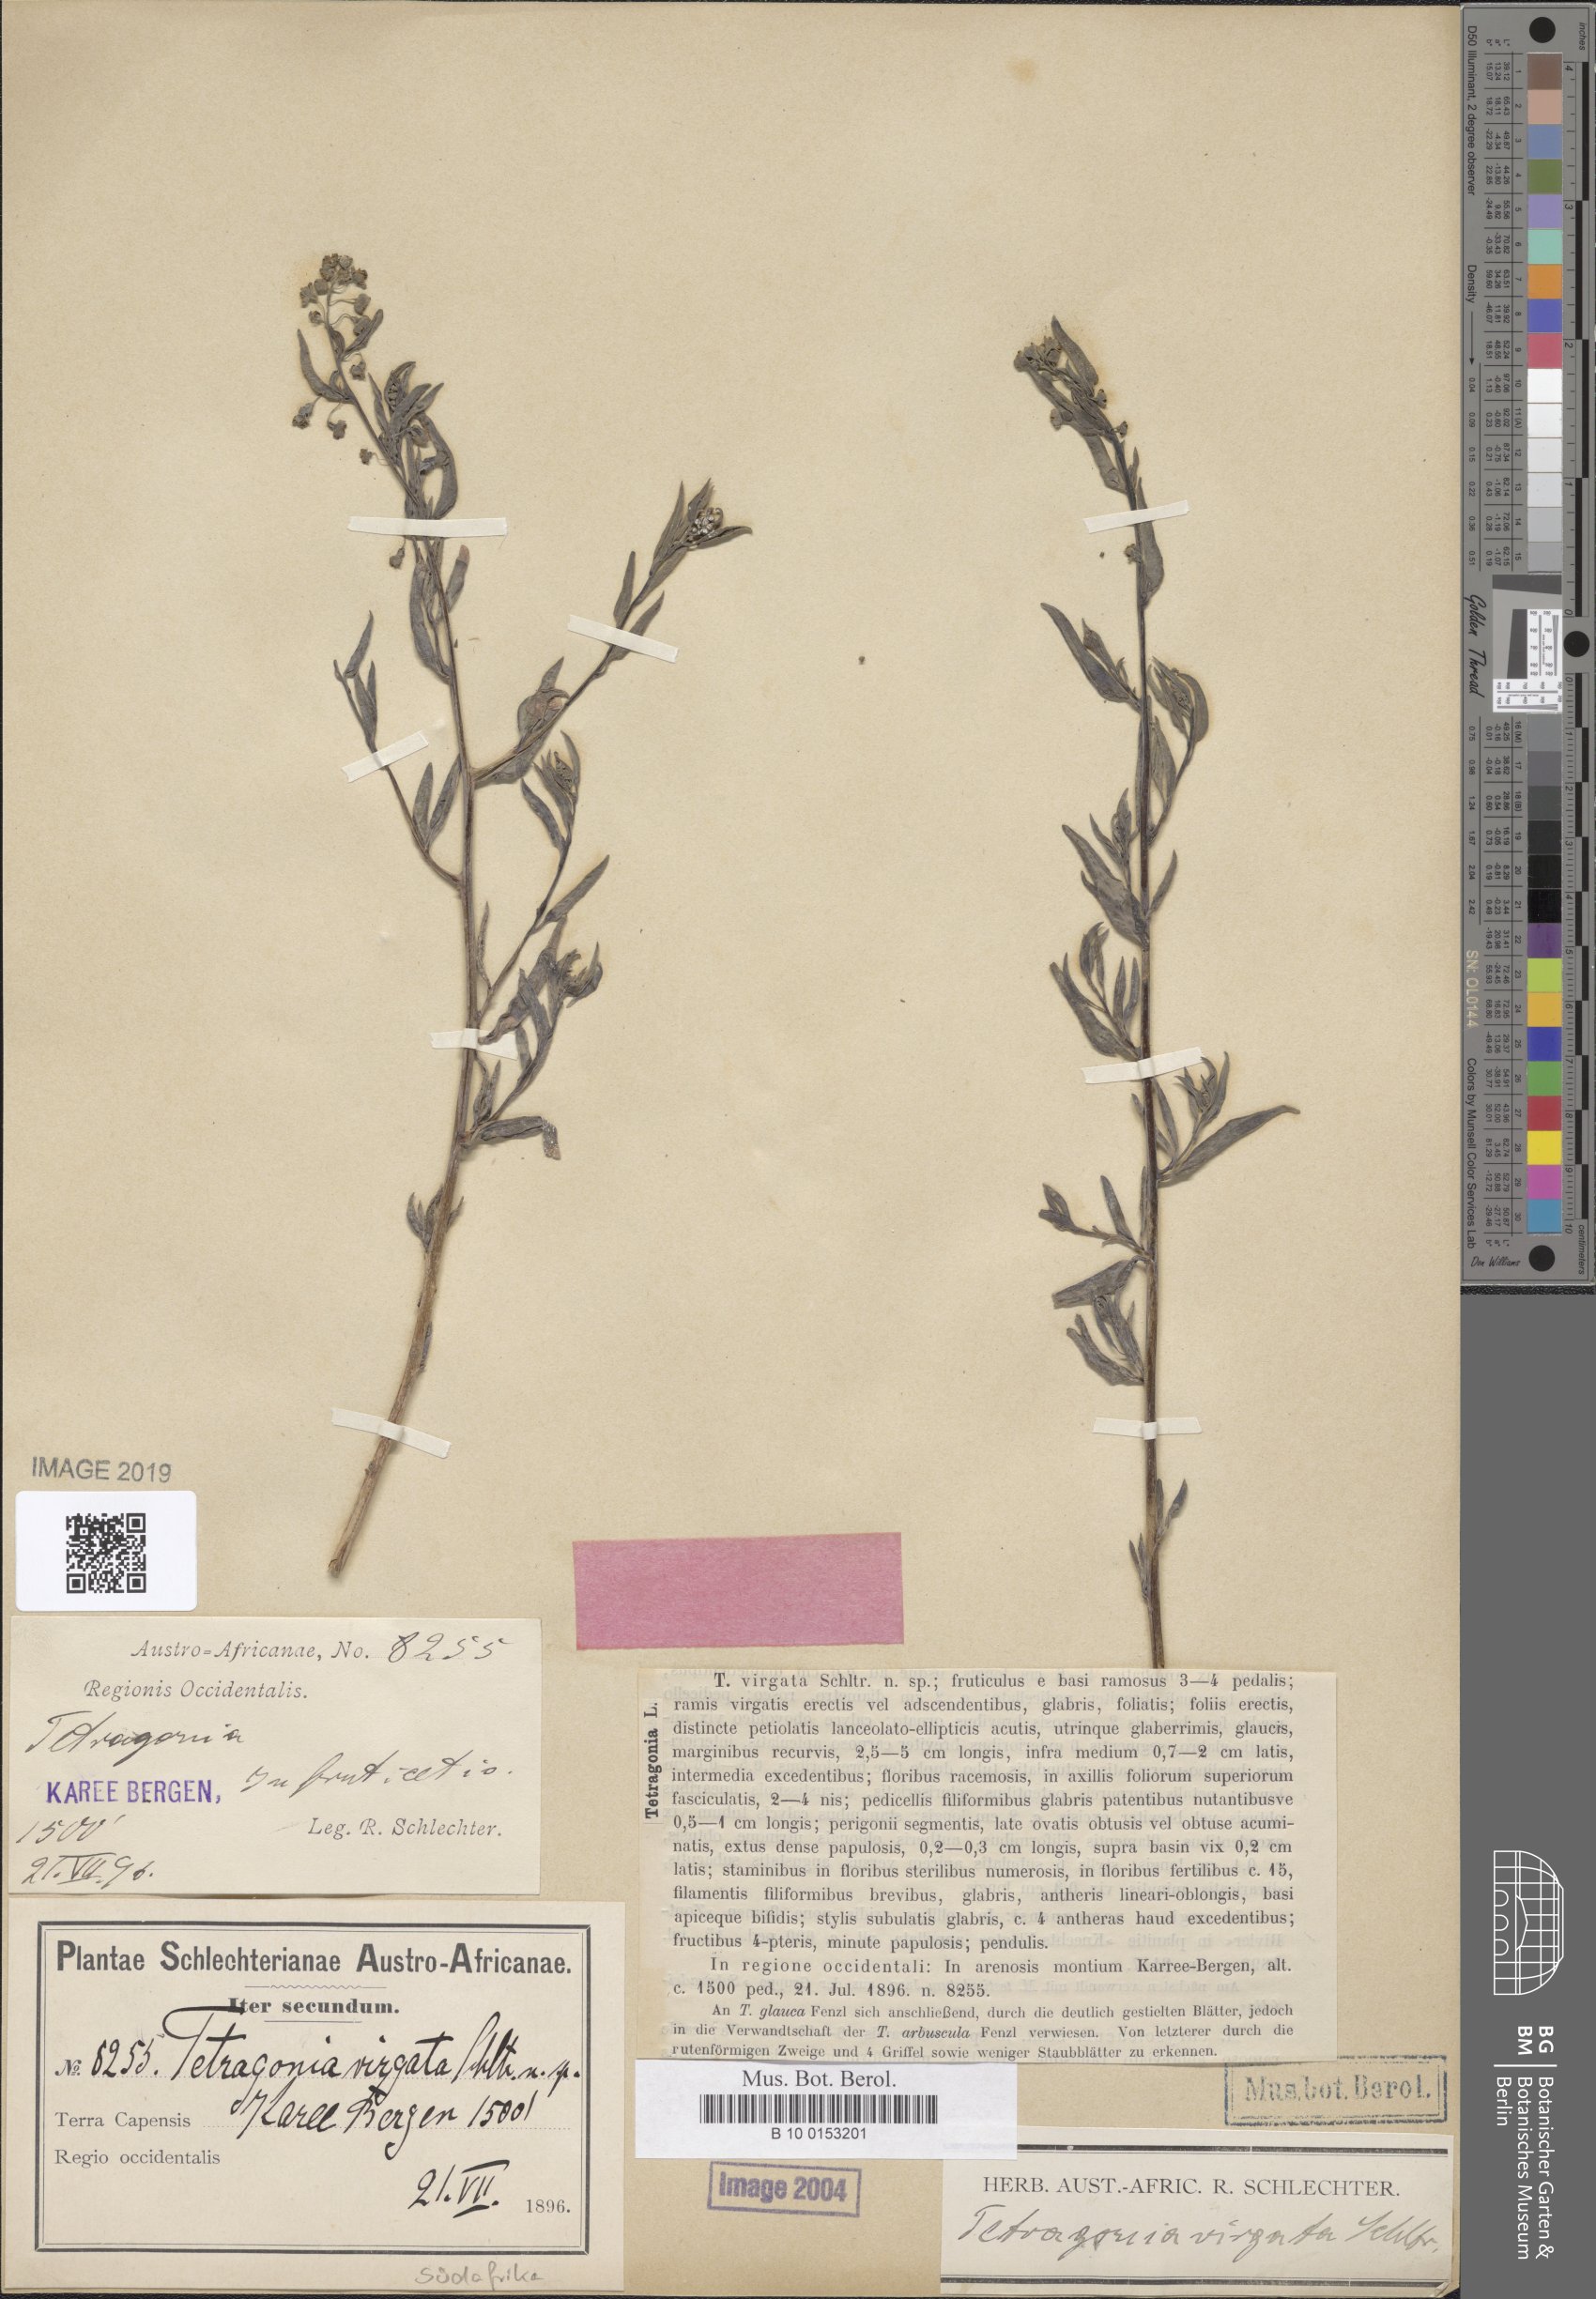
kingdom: Plantae
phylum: Tracheophyta
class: Magnoliopsida
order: Caryophyllales
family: Aizoaceae
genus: Tetragonia
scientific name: Tetragonia virgata
